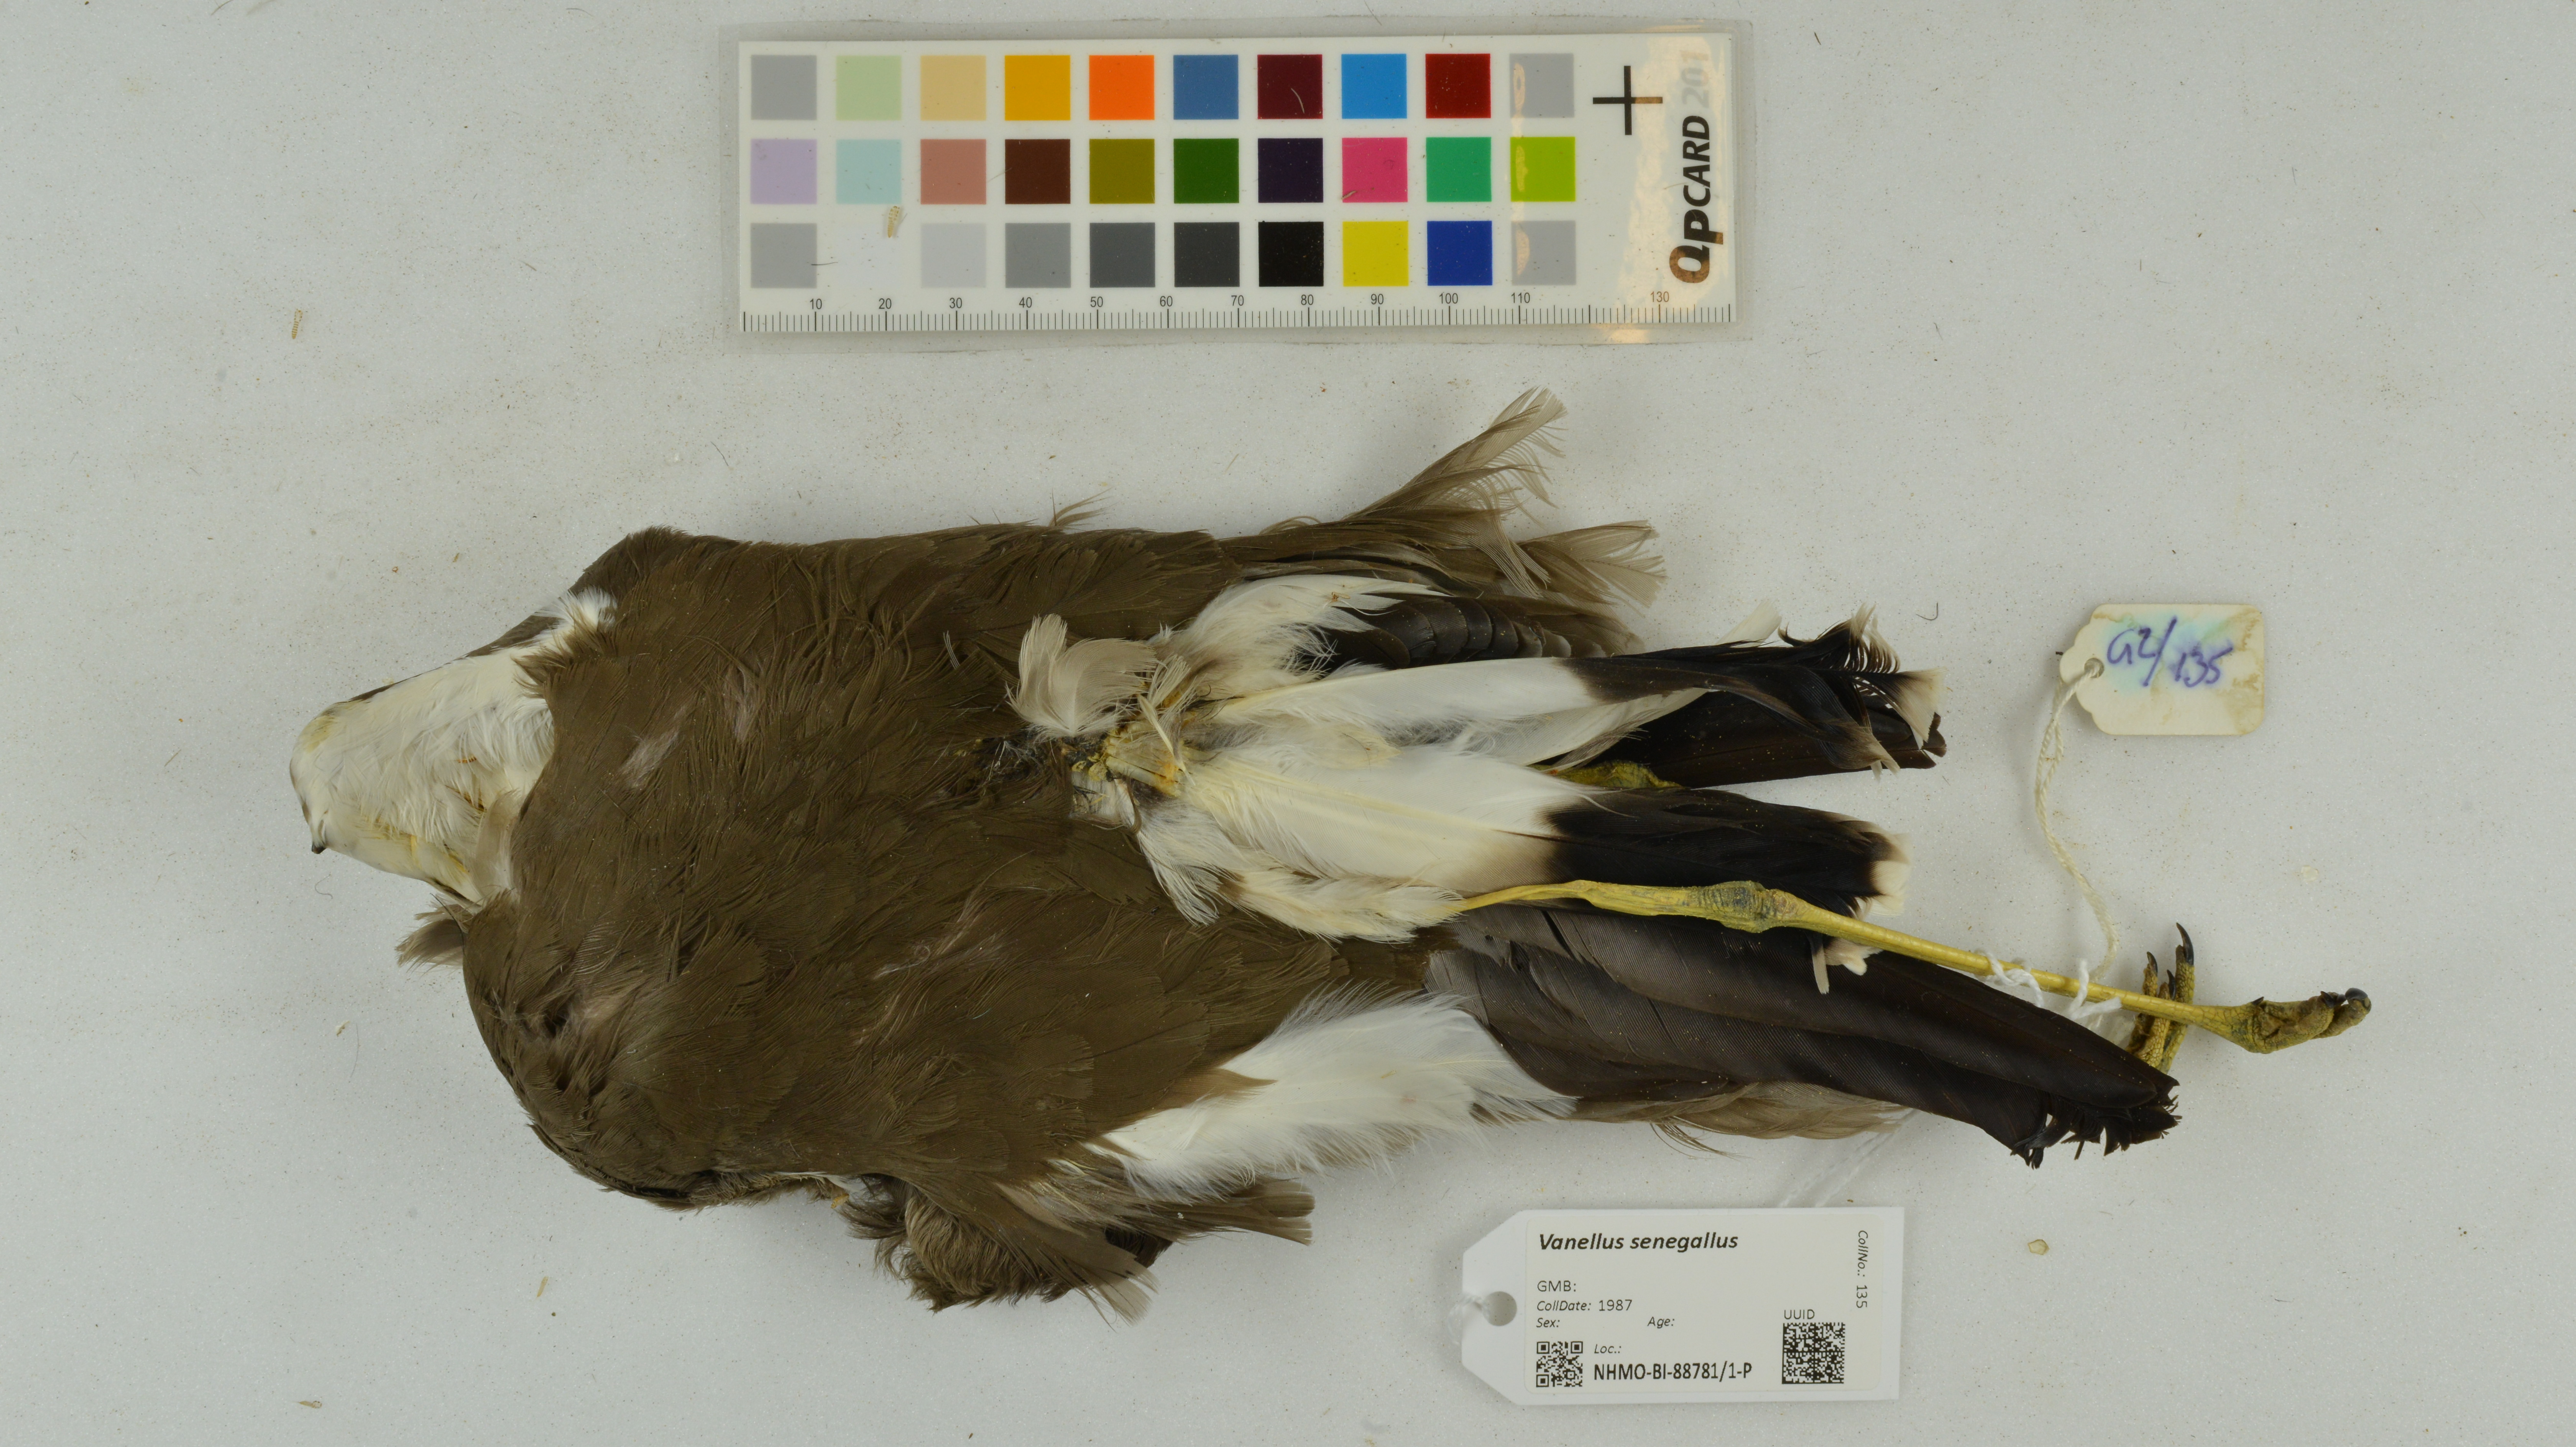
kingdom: Animalia
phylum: Chordata
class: Aves
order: Charadriiformes
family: Charadriidae
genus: Vanellus
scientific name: Vanellus senegallus
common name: African wattled lapwing
